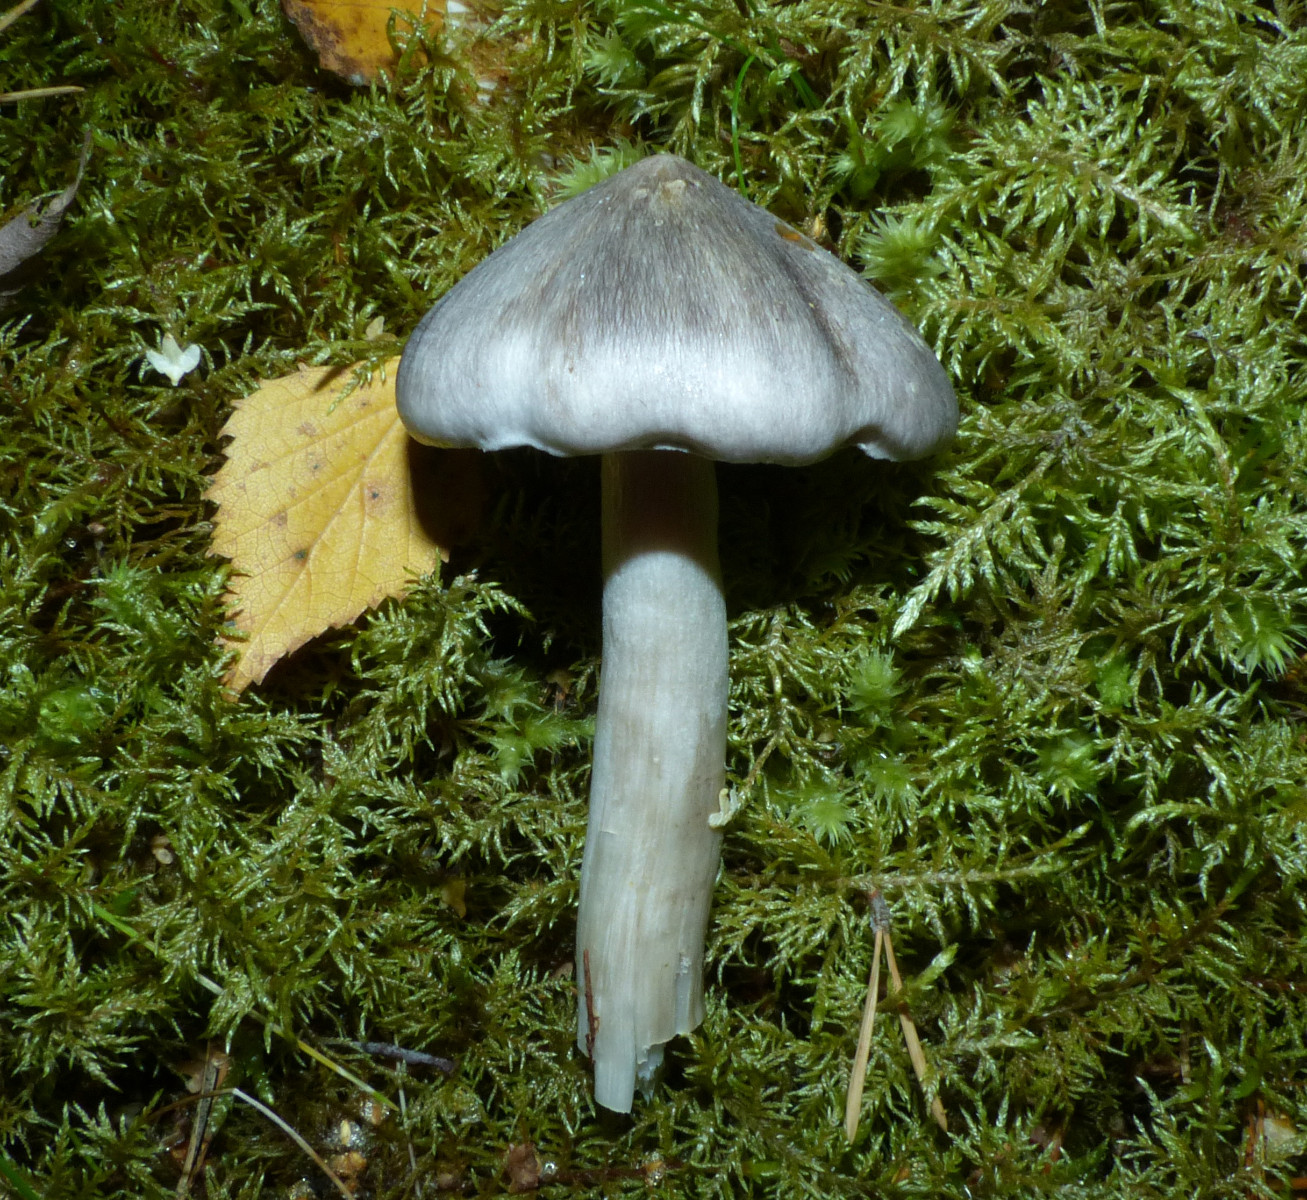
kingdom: Fungi
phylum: Basidiomycota
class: Agaricomycetes
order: Agaricales
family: Tricholomataceae
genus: Tricholoma
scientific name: Tricholoma virgatum
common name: nålestribet ridderhat
